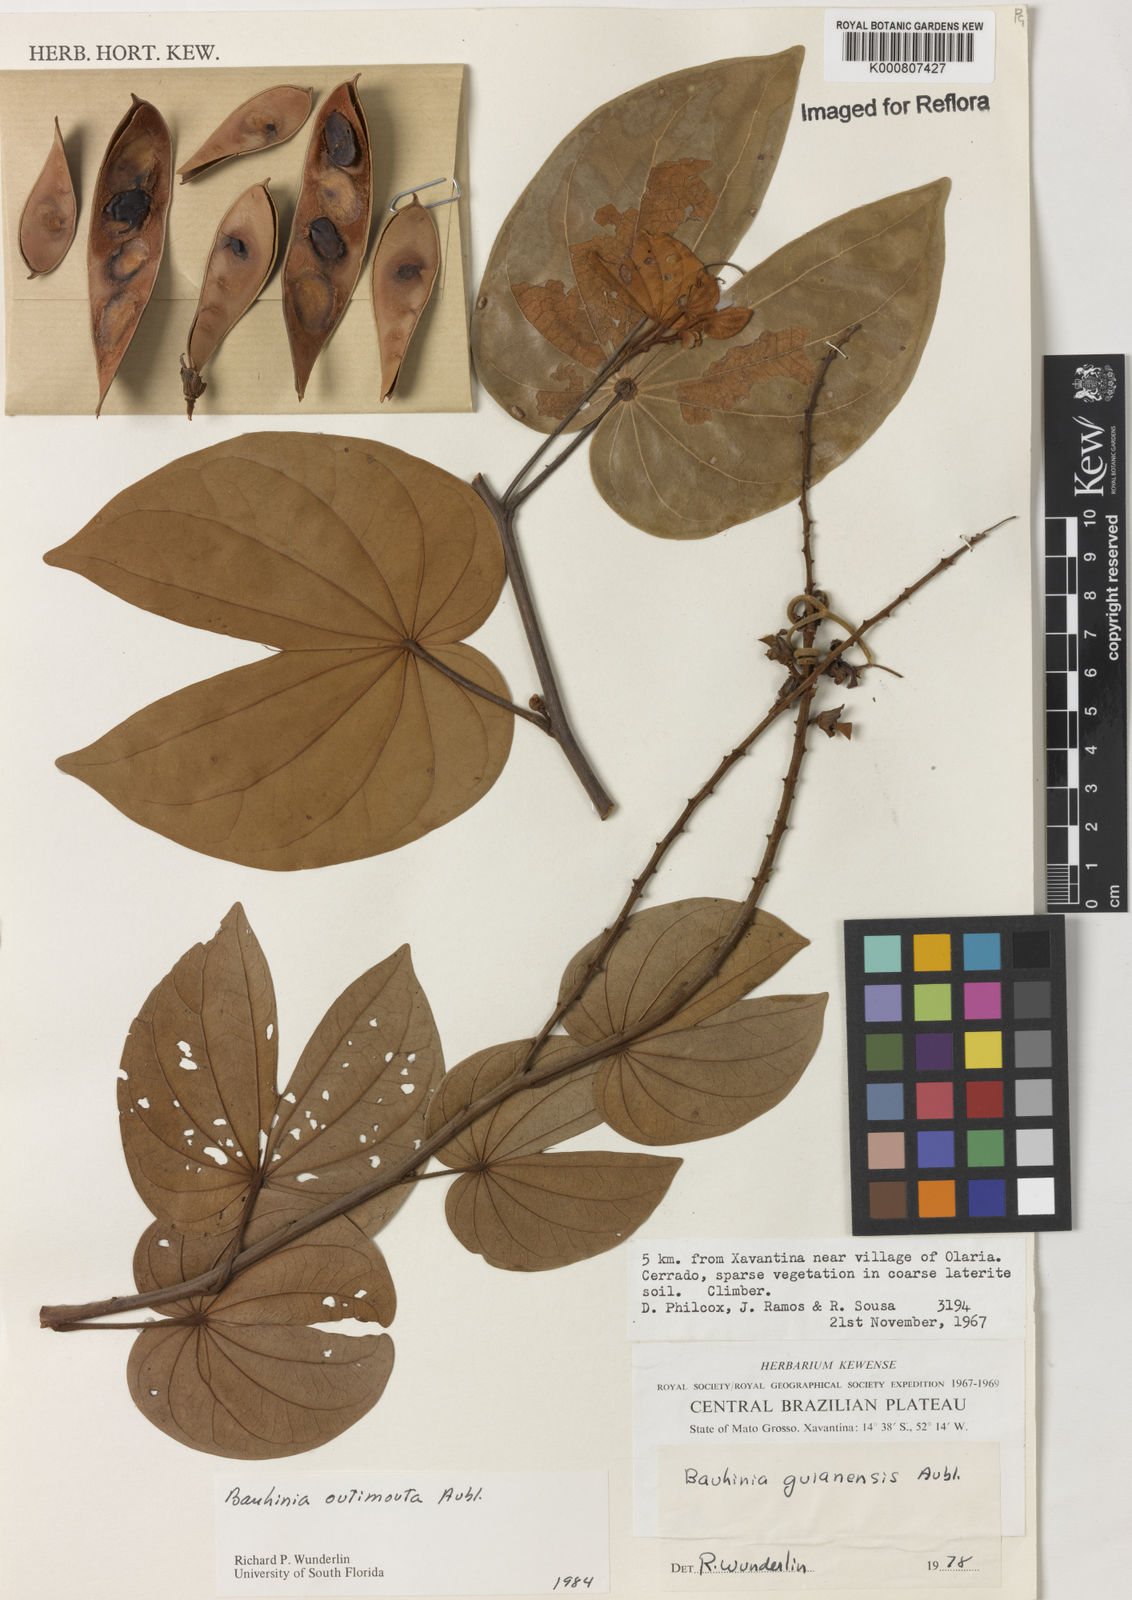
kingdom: Plantae
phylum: Tracheophyta
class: Magnoliopsida
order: Fabales
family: Fabaceae
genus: Schnella
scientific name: Schnella outimouta
